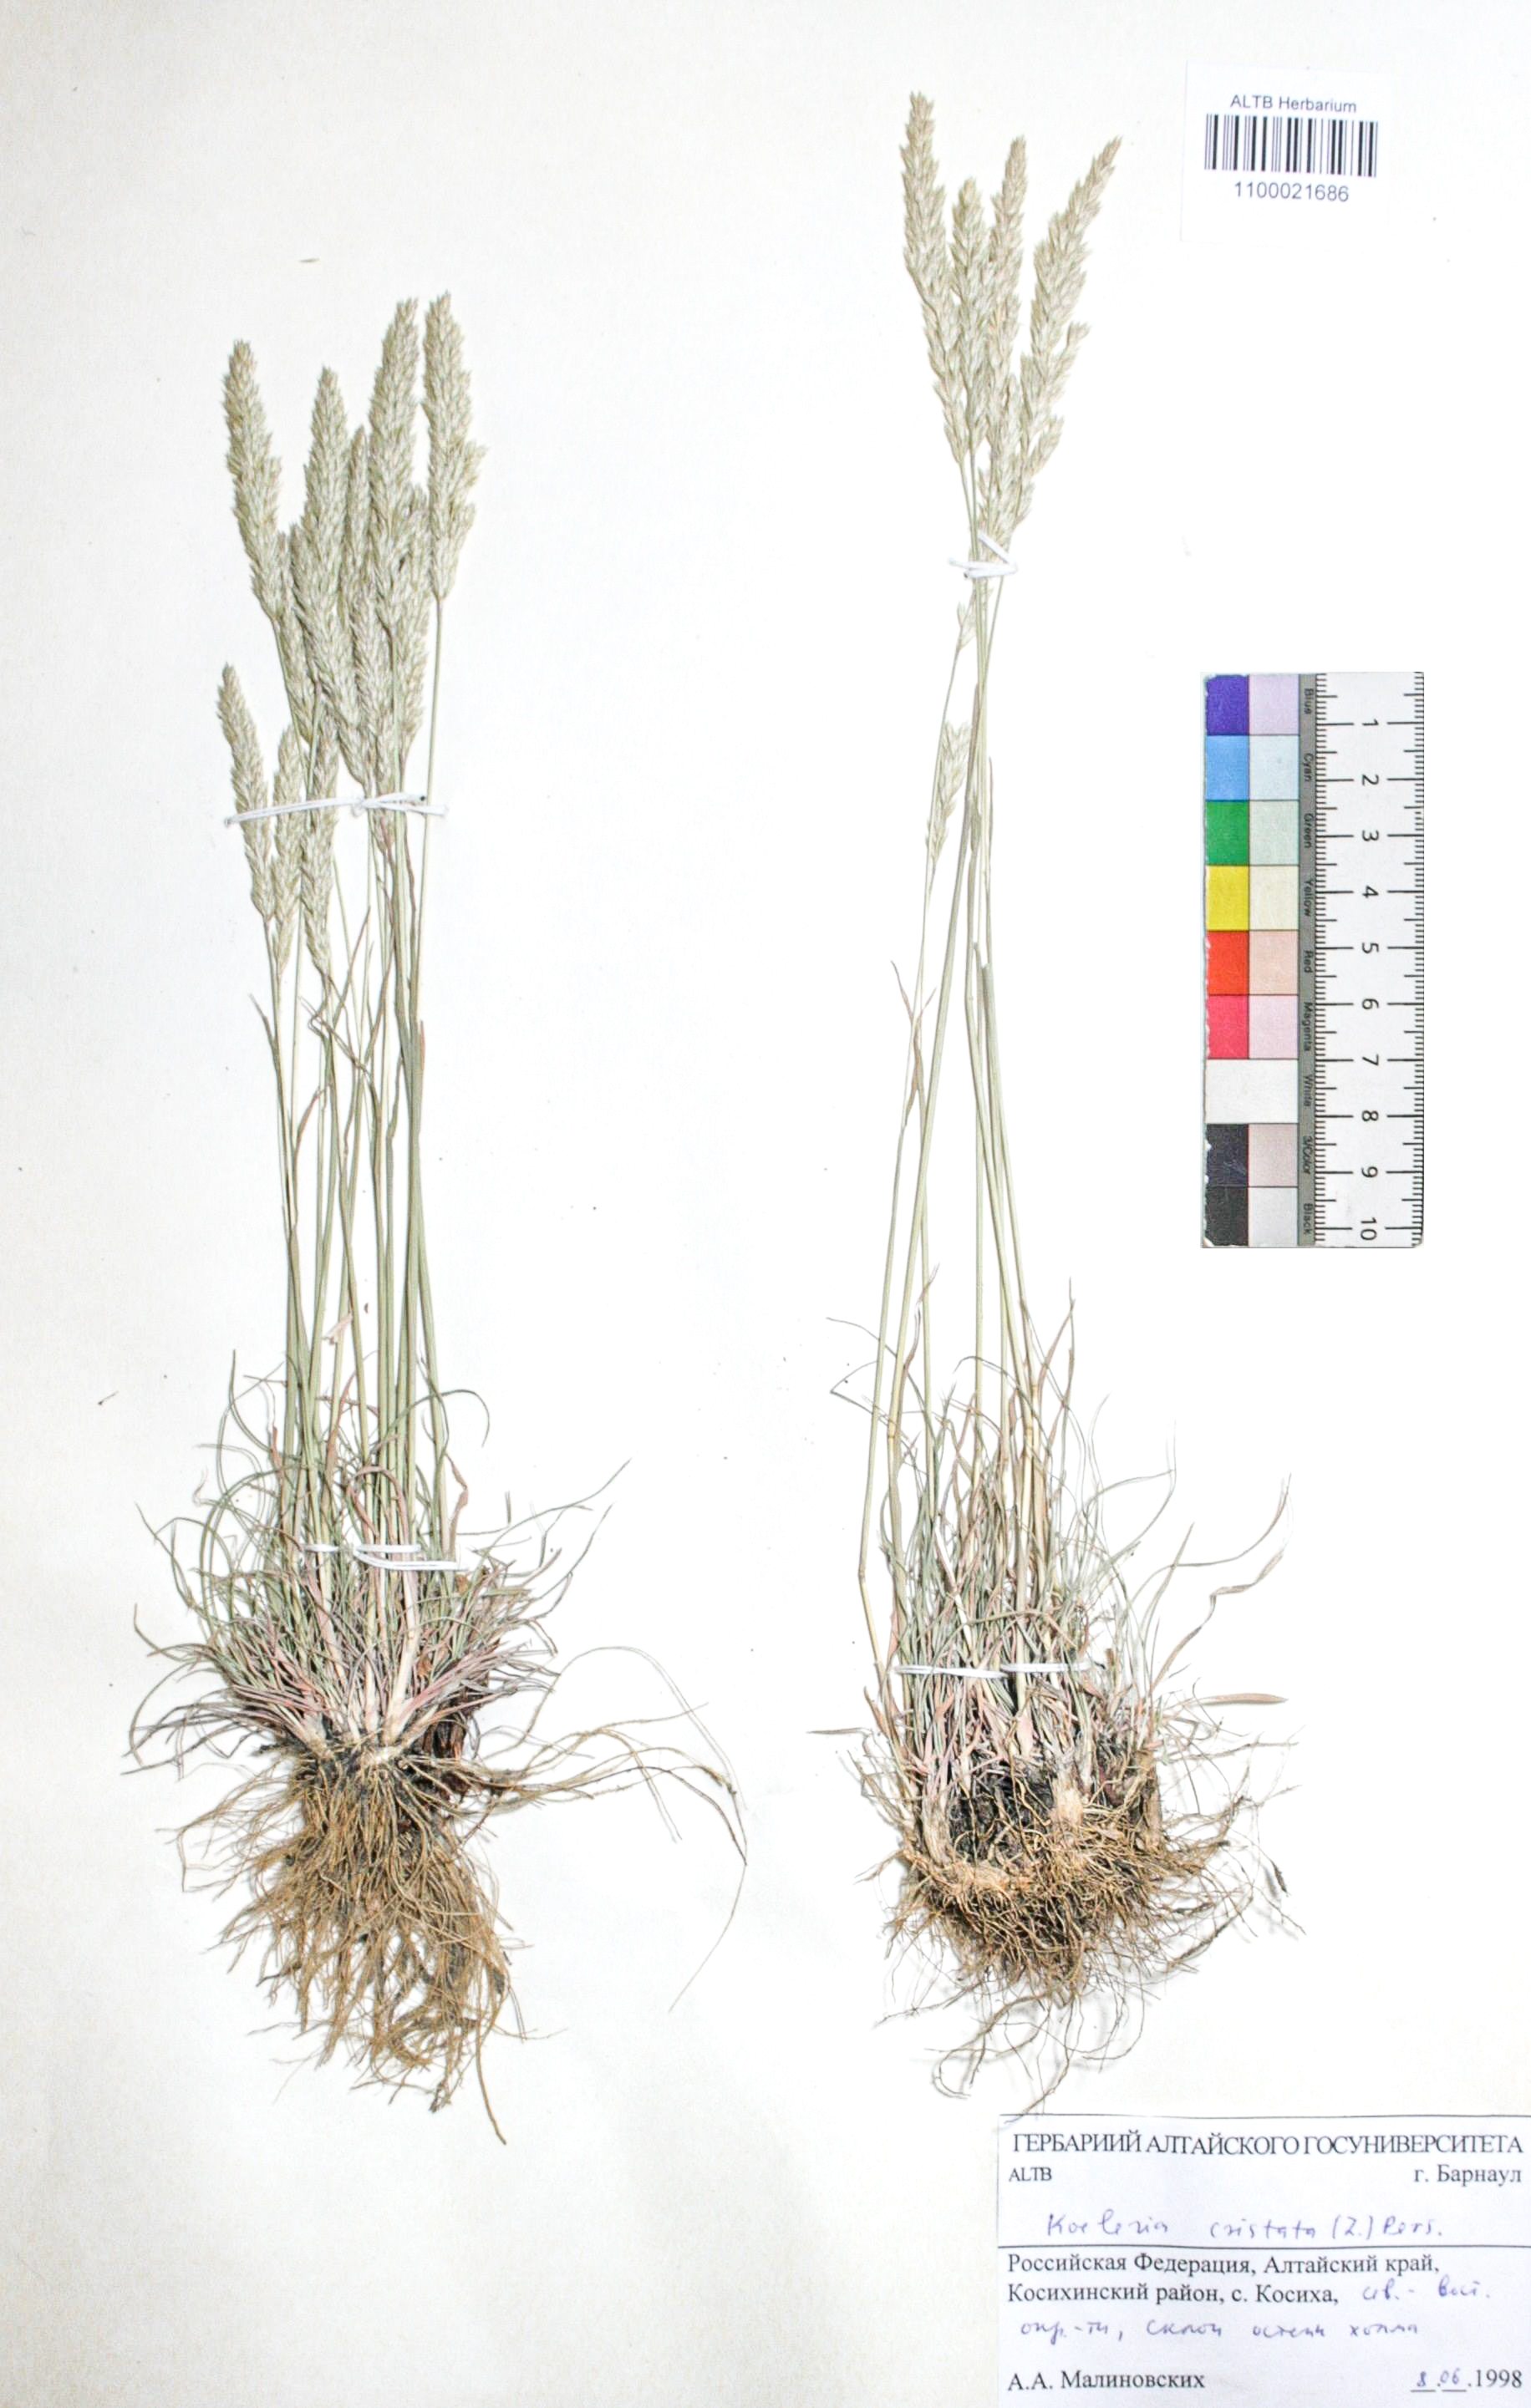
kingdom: Plantae
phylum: Tracheophyta
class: Liliopsida
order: Poales
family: Poaceae
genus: Koeleria
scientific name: Koeleria pyramidata
